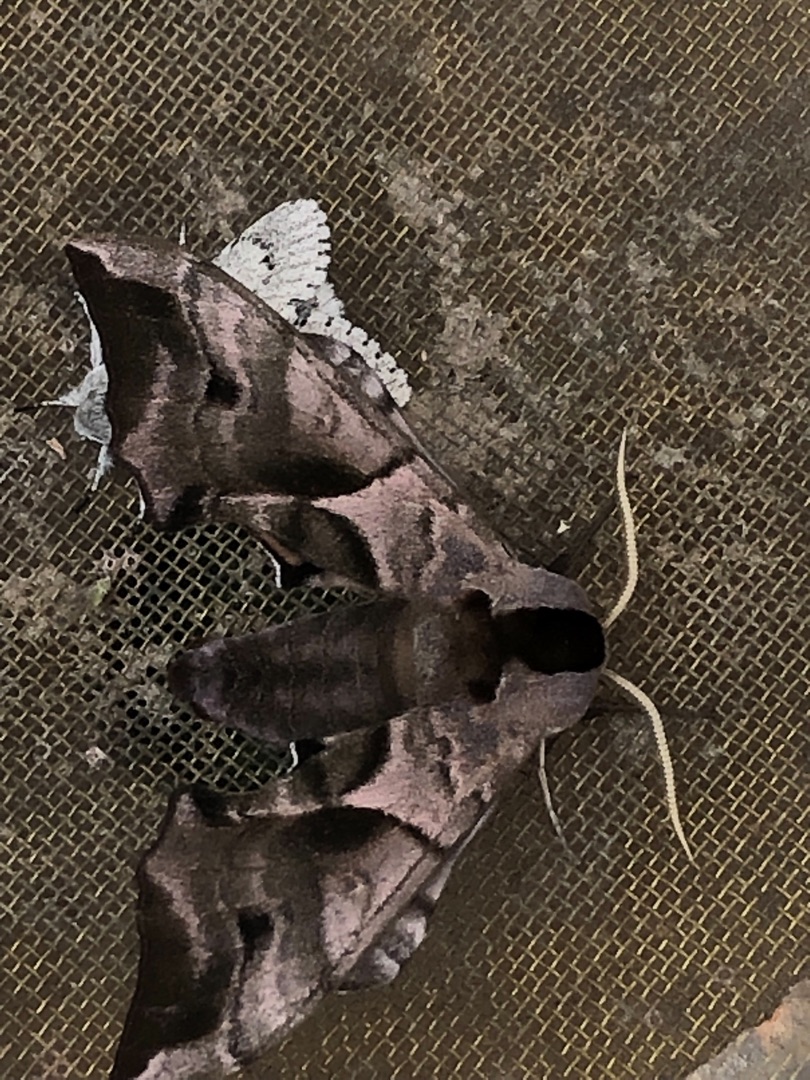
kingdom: Animalia
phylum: Arthropoda
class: Insecta
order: Lepidoptera
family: Sphingidae
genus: Smerinthus
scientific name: Smerinthus ocellata
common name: Aftenpåfugleøje
